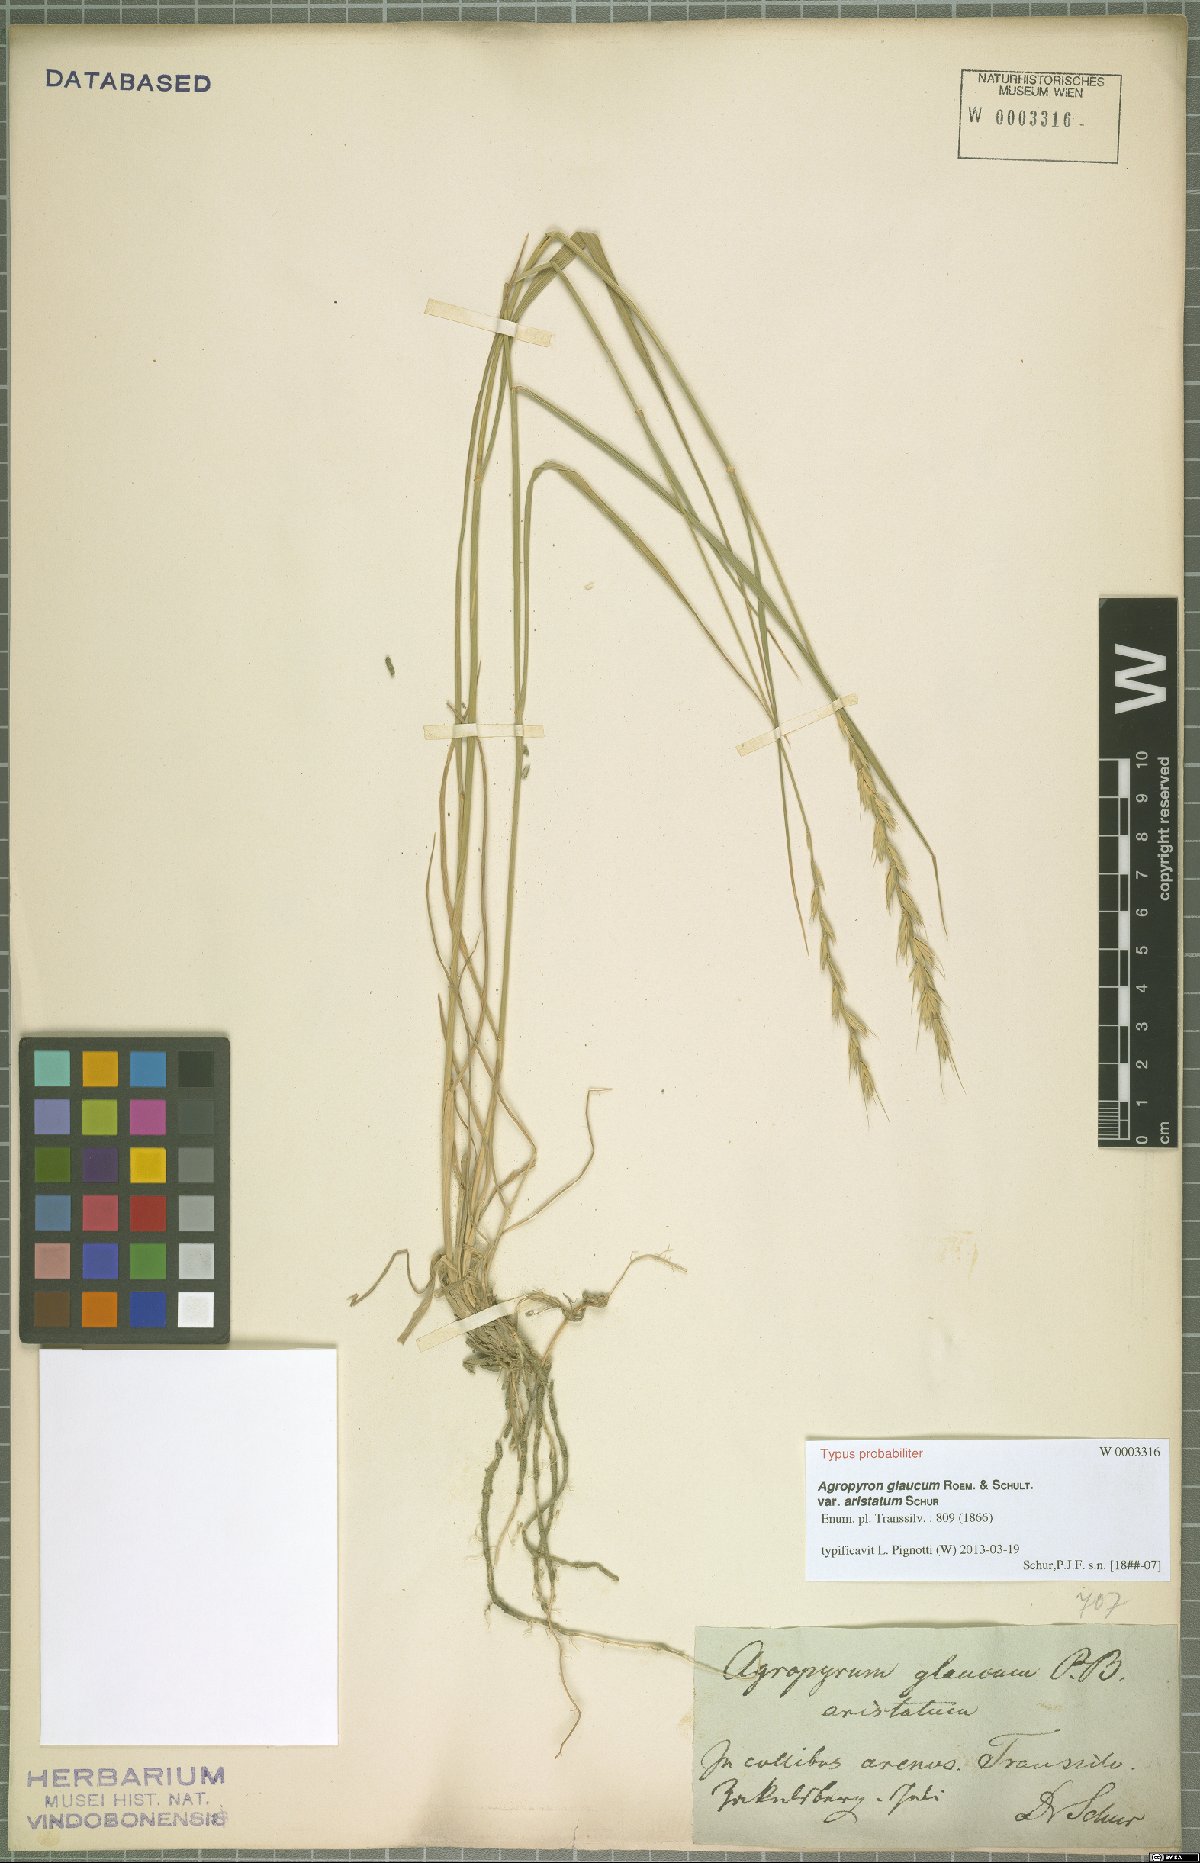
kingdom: Plantae
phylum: Tracheophyta
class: Liliopsida
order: Poales
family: Poaceae
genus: Thinopyrum
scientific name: Thinopyrum intermedium
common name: Intermediate wheatgrass
